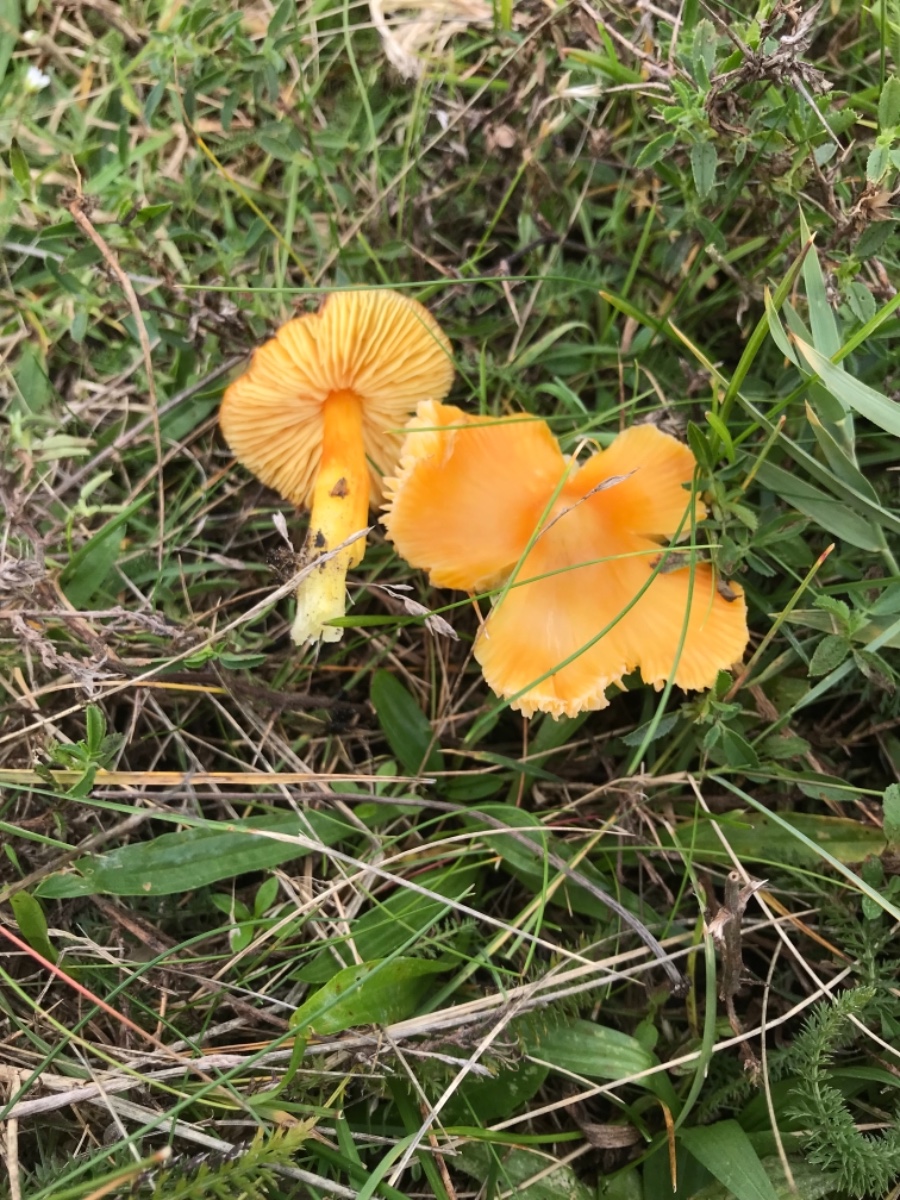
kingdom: Fungi
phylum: Basidiomycota
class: Agaricomycetes
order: Agaricales
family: Hygrophoraceae
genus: Hygrocybe
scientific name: Hygrocybe acutoconica
